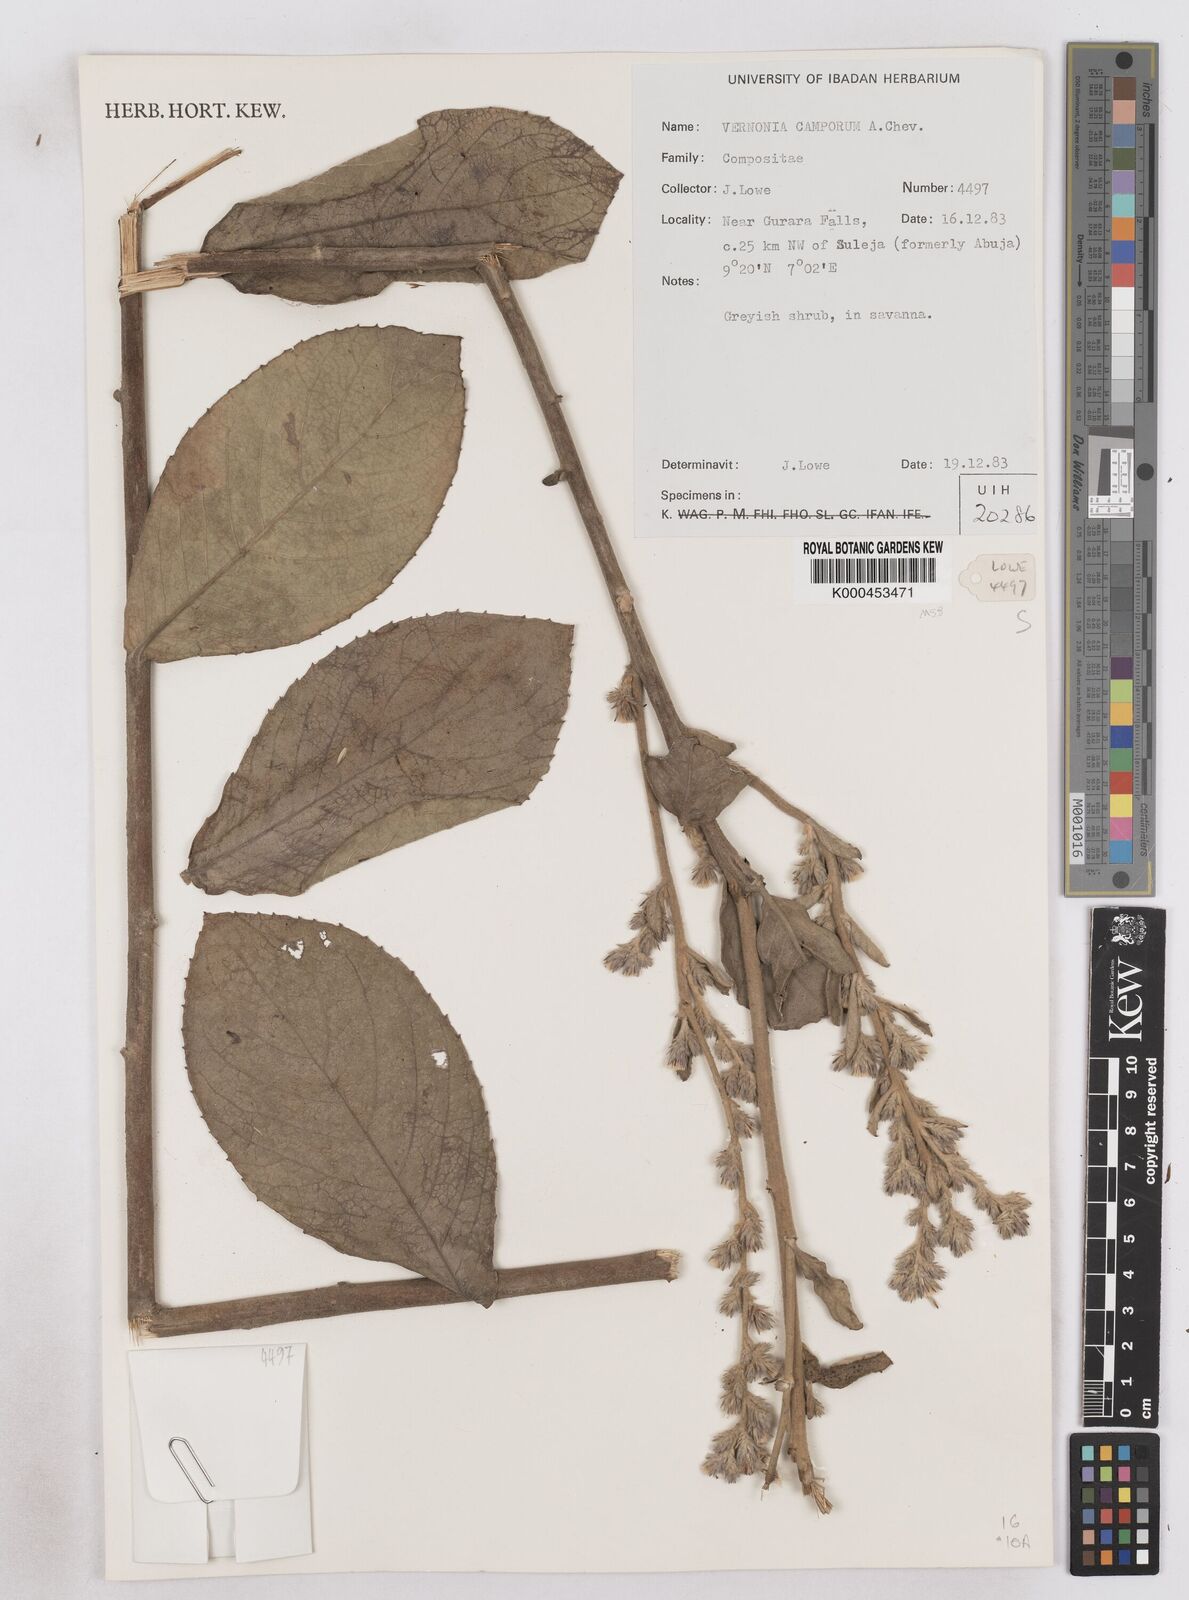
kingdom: Plantae
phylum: Tracheophyta
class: Magnoliopsida
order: Asterales
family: Asteraceae
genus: Vernoniastrum
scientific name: Vernoniastrum camporum
